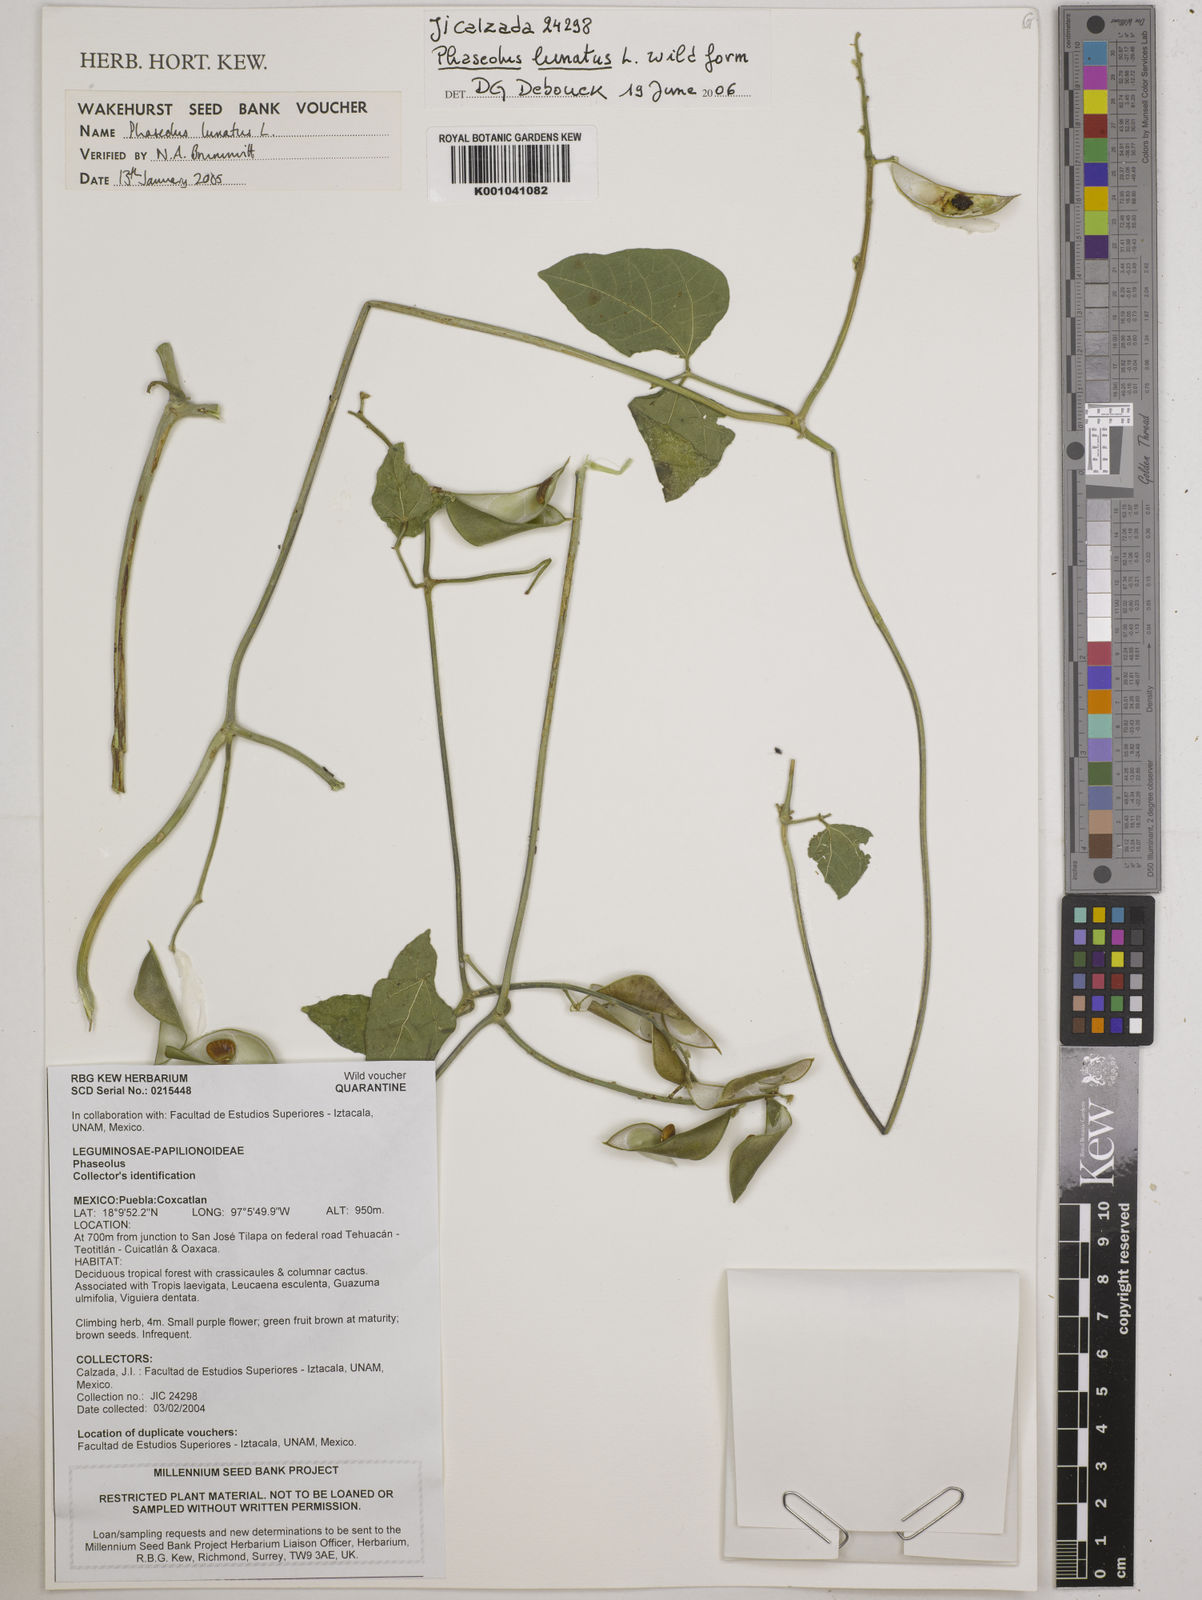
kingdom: Plantae
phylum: Tracheophyta
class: Magnoliopsida
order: Fabales
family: Fabaceae
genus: Phaseolus
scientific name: Phaseolus lunatus
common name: Sieva bean
